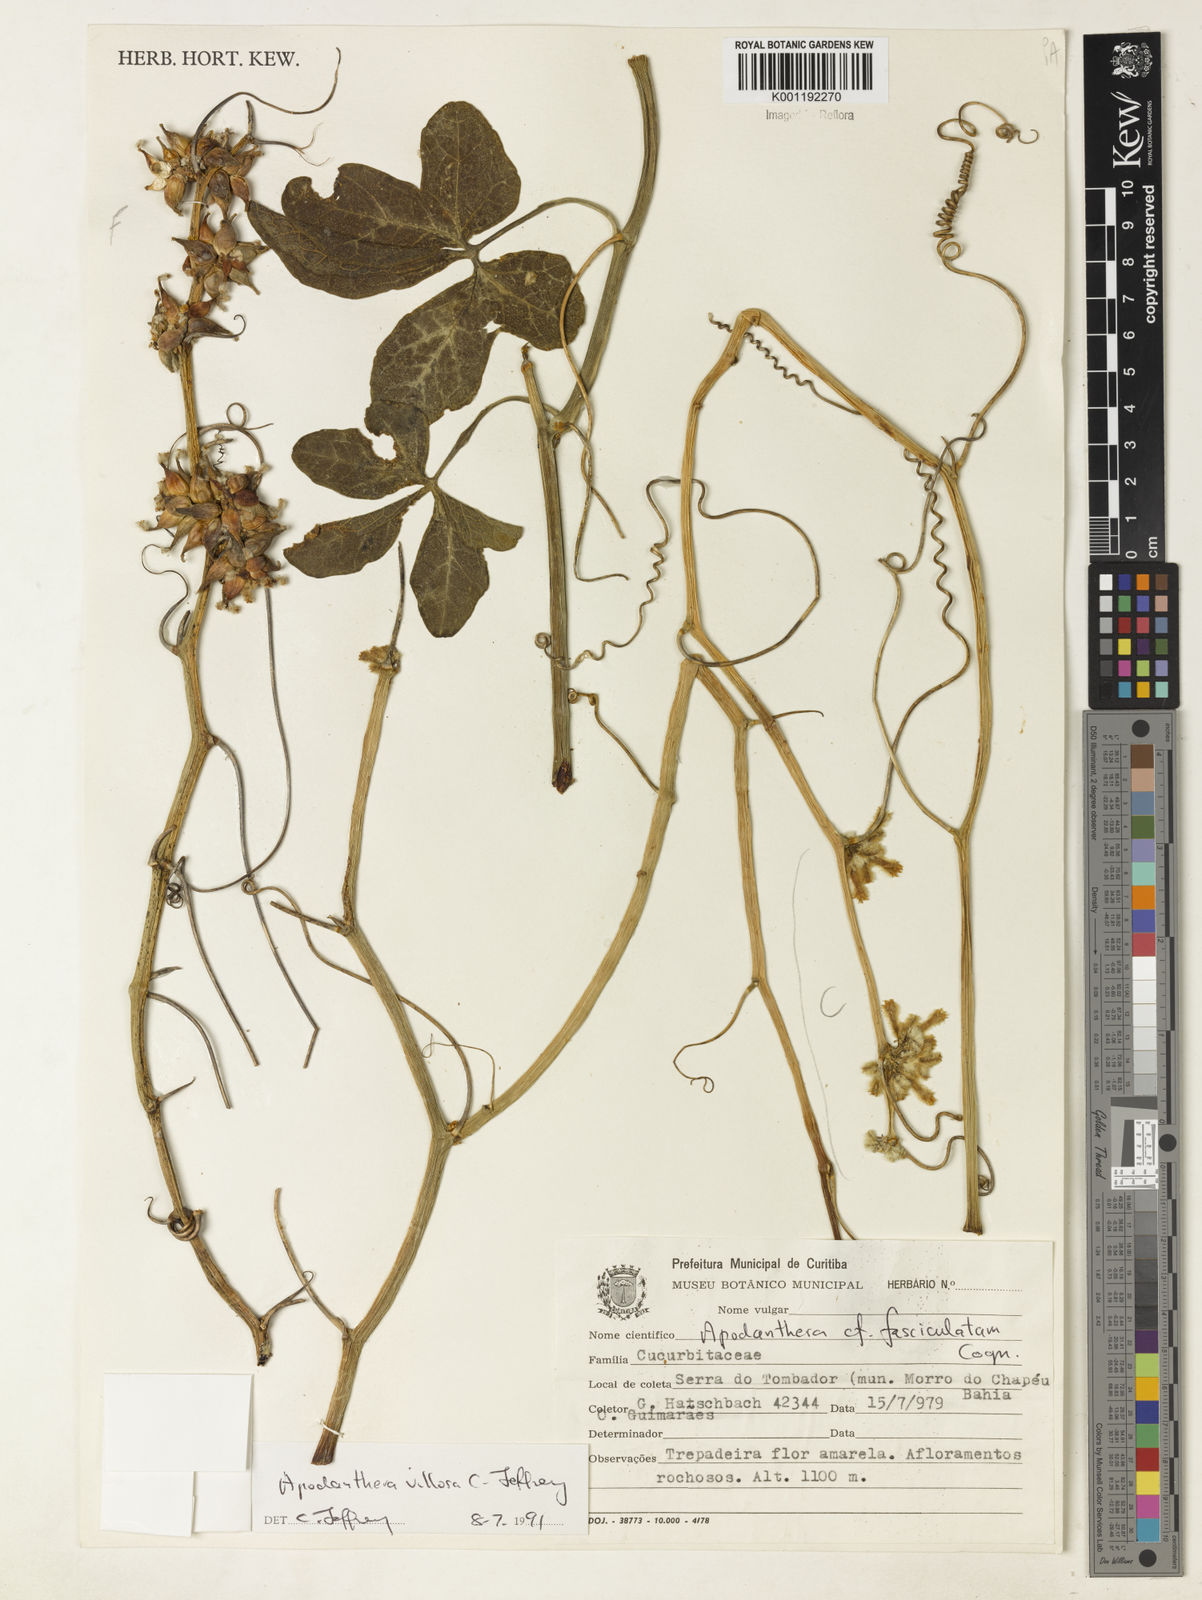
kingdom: Plantae
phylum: Tracheophyta
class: Magnoliopsida
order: Cucurbitales
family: Cucurbitaceae
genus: Apodanthera
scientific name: Apodanthera villosa
